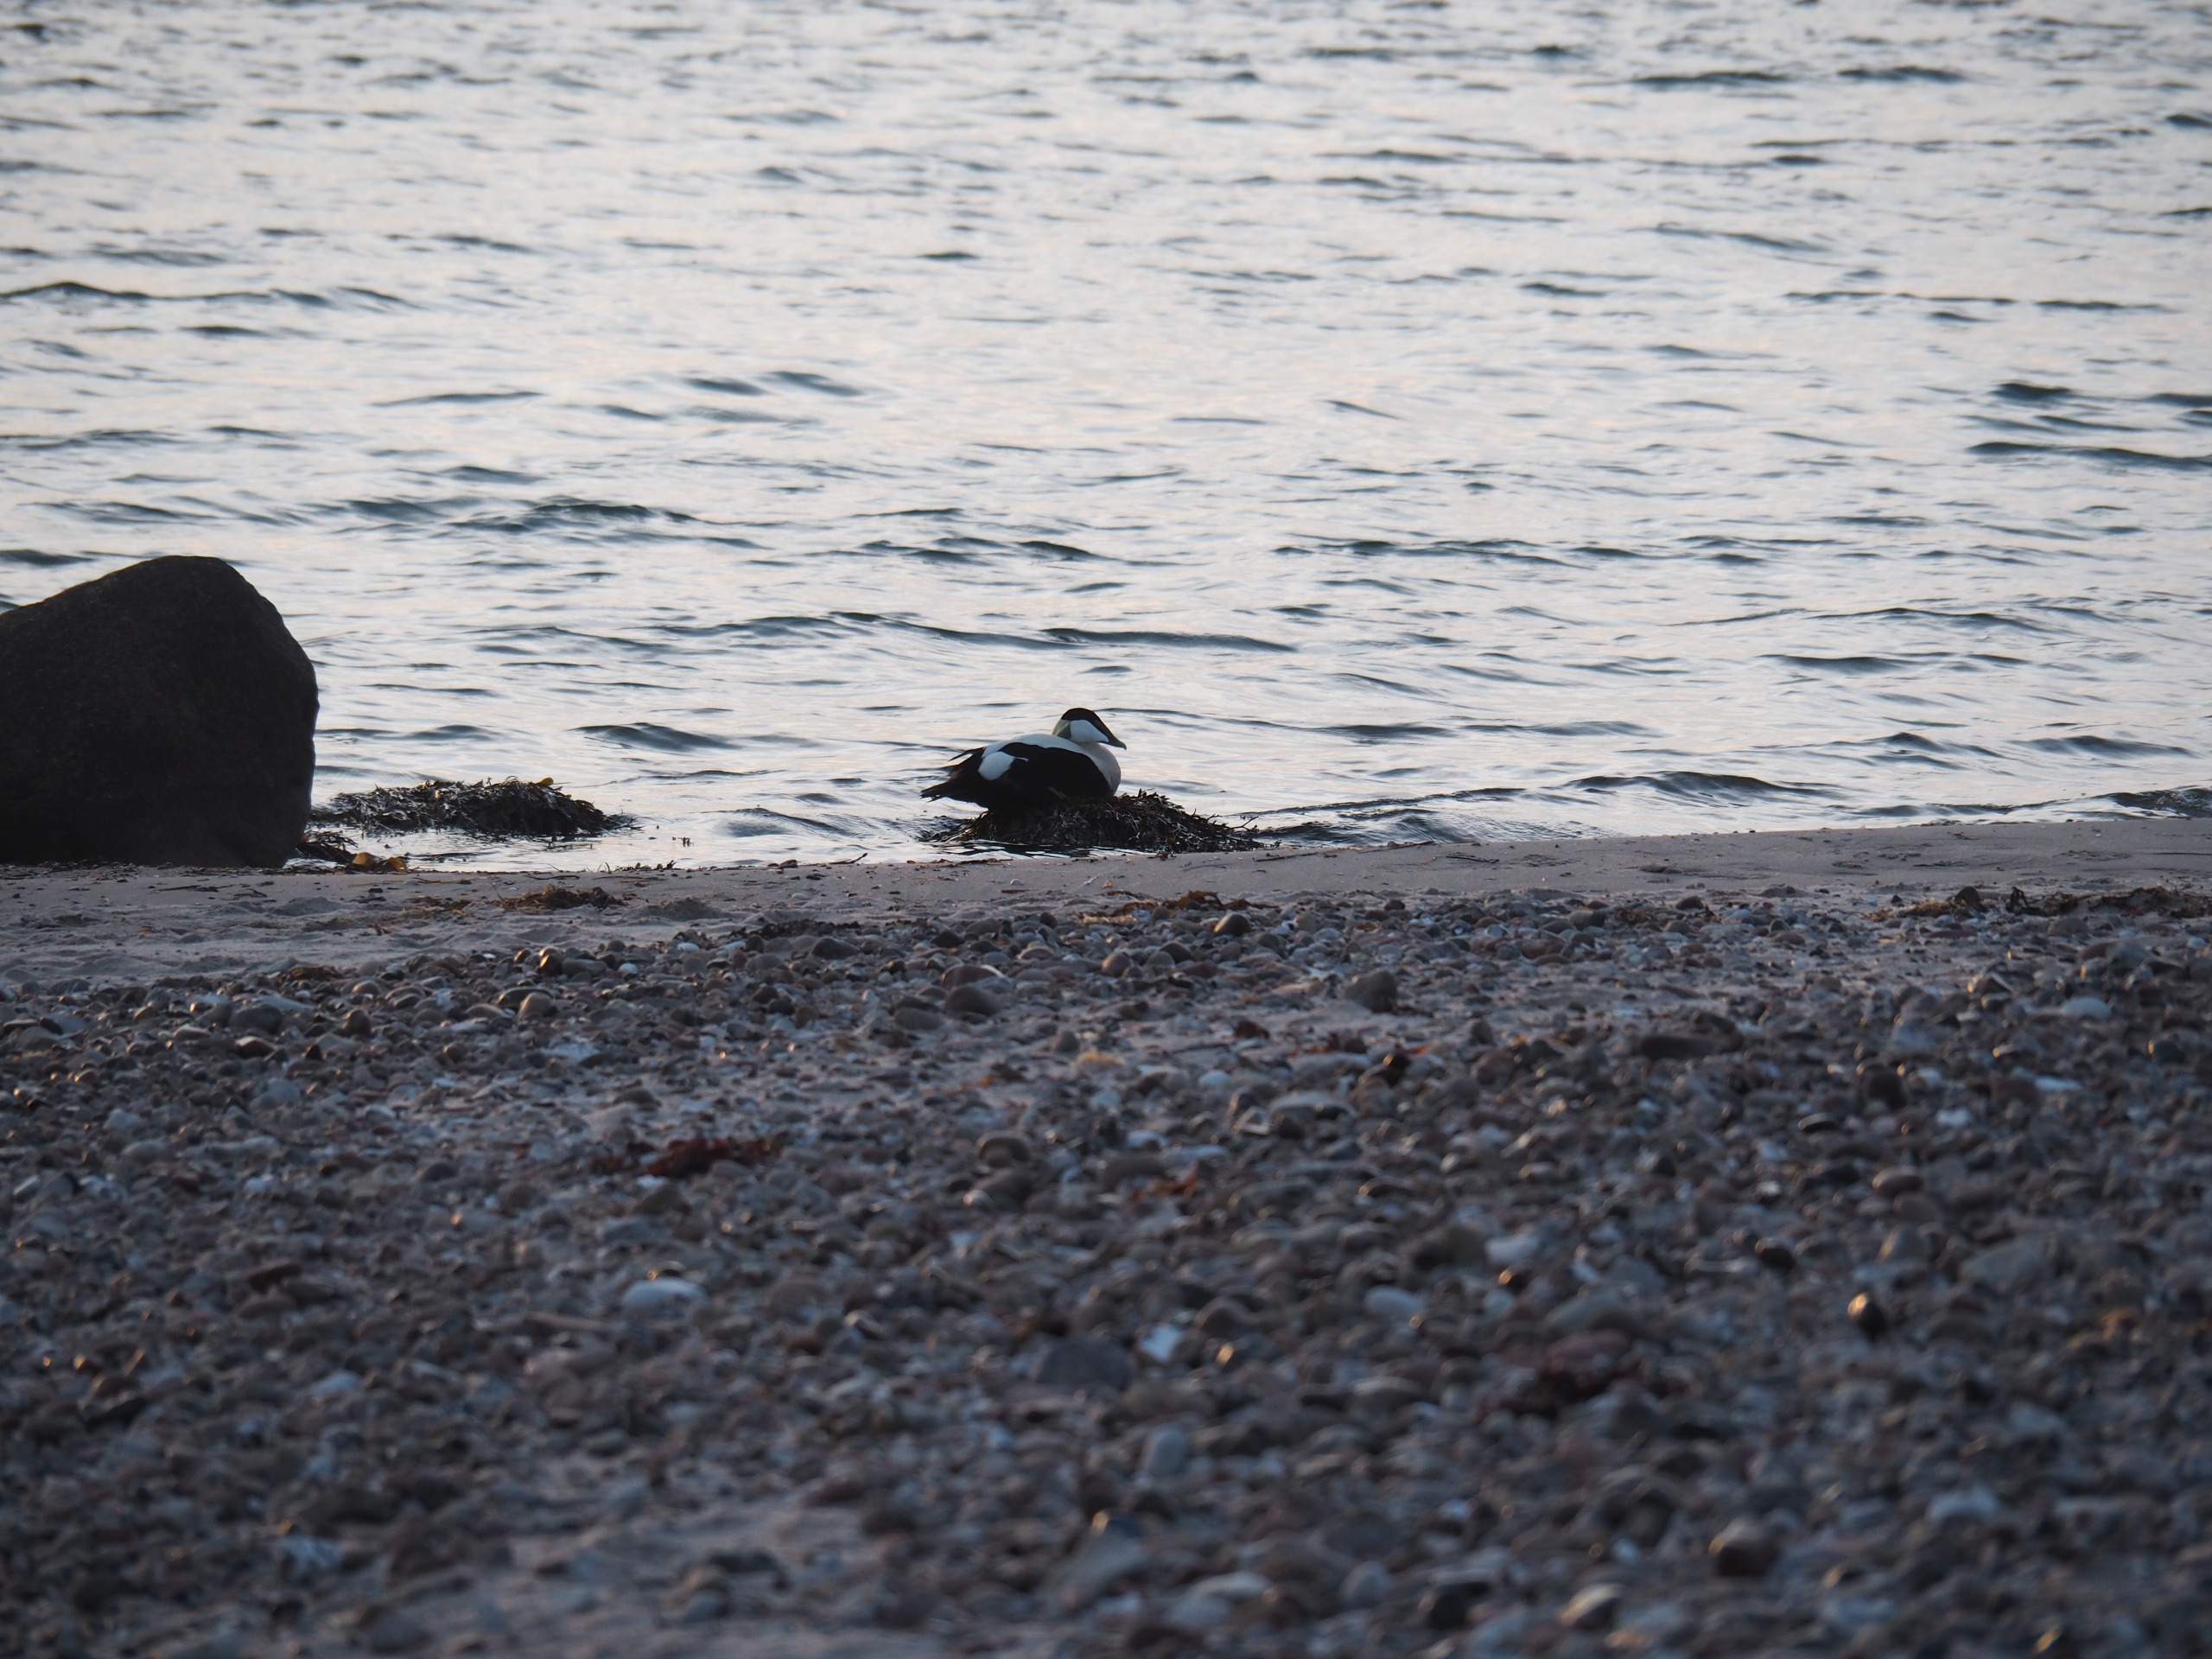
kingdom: Animalia
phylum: Chordata
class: Aves
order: Anseriformes
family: Anatidae
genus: Somateria
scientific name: Somateria mollissima
